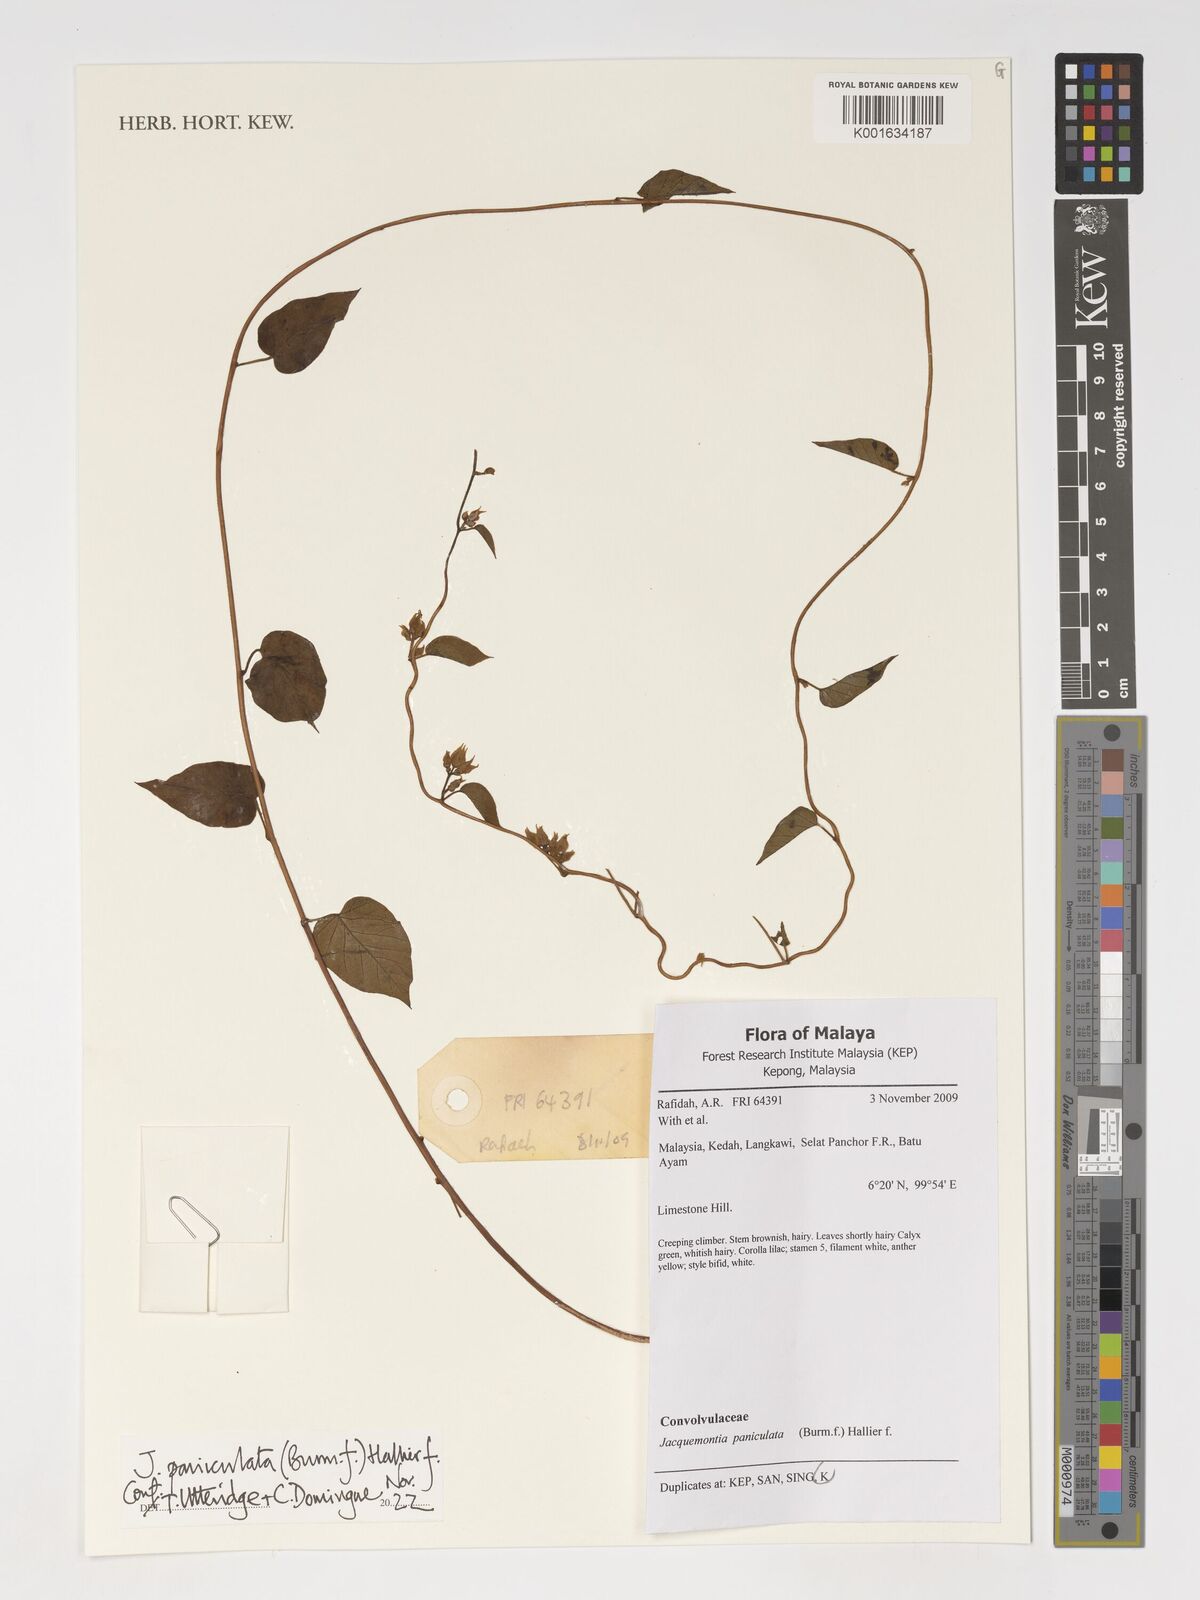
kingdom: Plantae
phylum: Tracheophyta
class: Magnoliopsida
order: Solanales
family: Convolvulaceae
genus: Jacquemontia
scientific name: Jacquemontia paniculata
